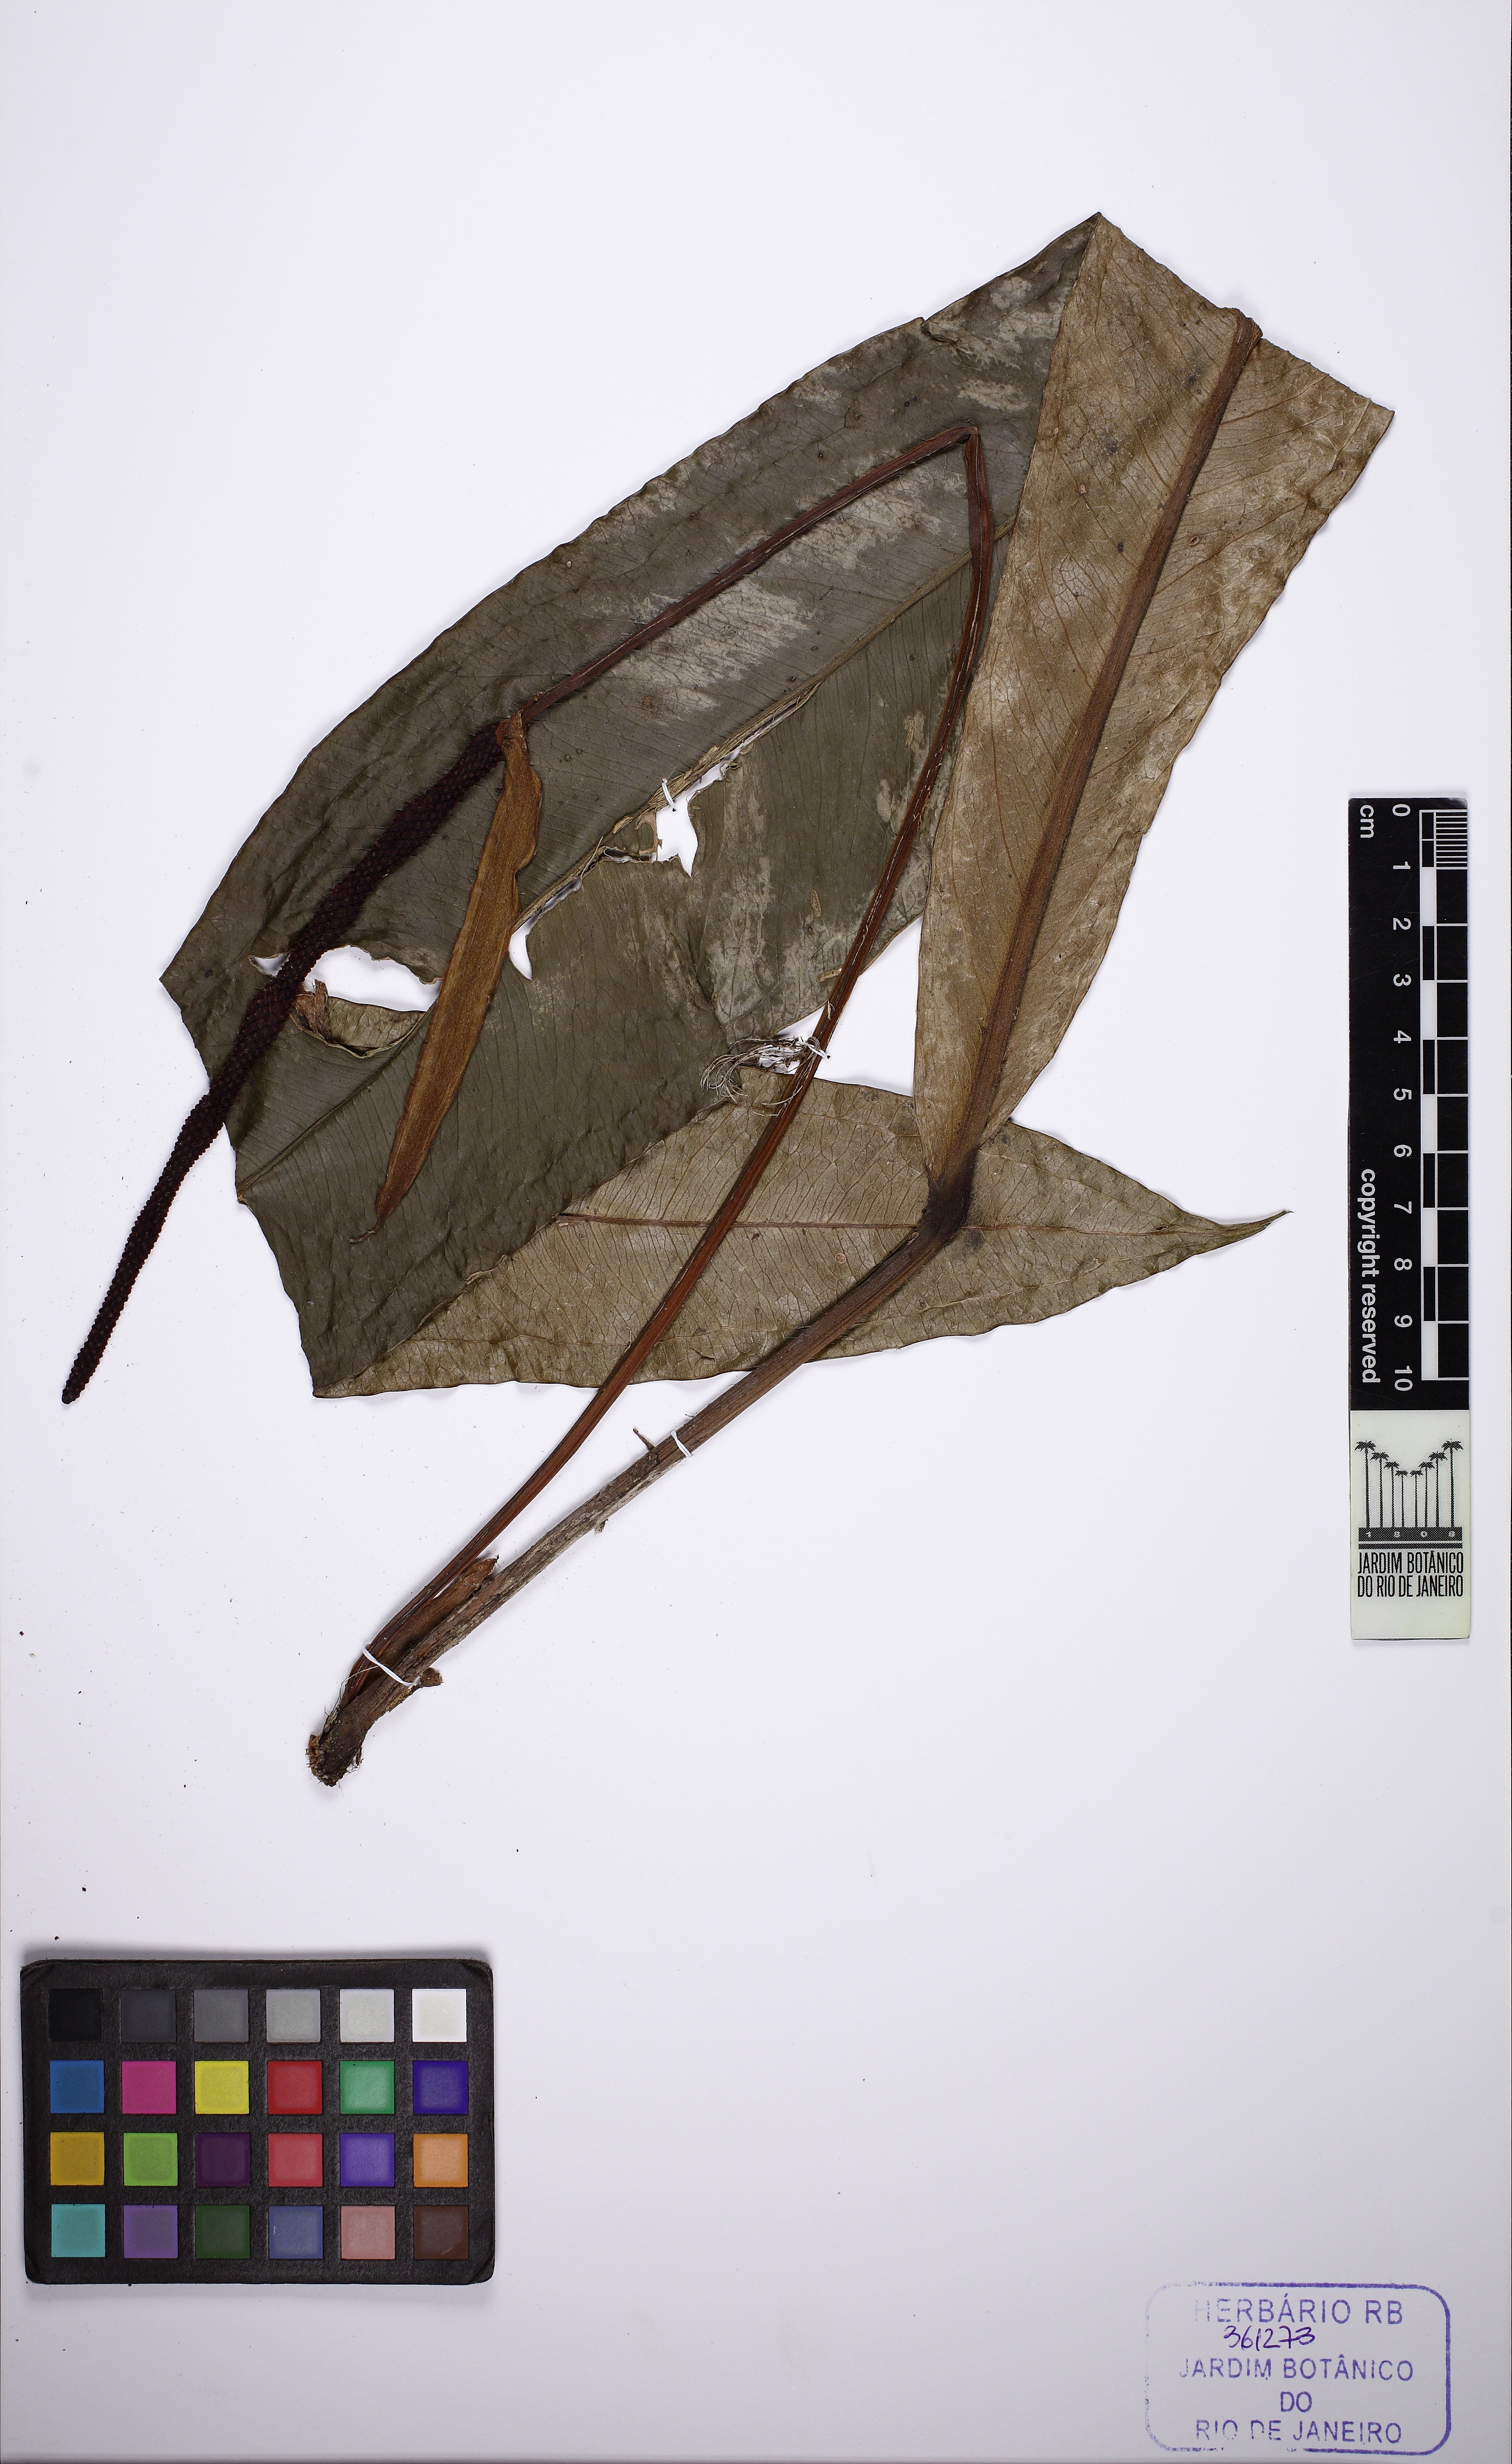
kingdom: Plantae
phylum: Tracheophyta
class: Liliopsida
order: Alismatales
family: Araceae
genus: Anthurium
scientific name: Anthurium sellowianum
